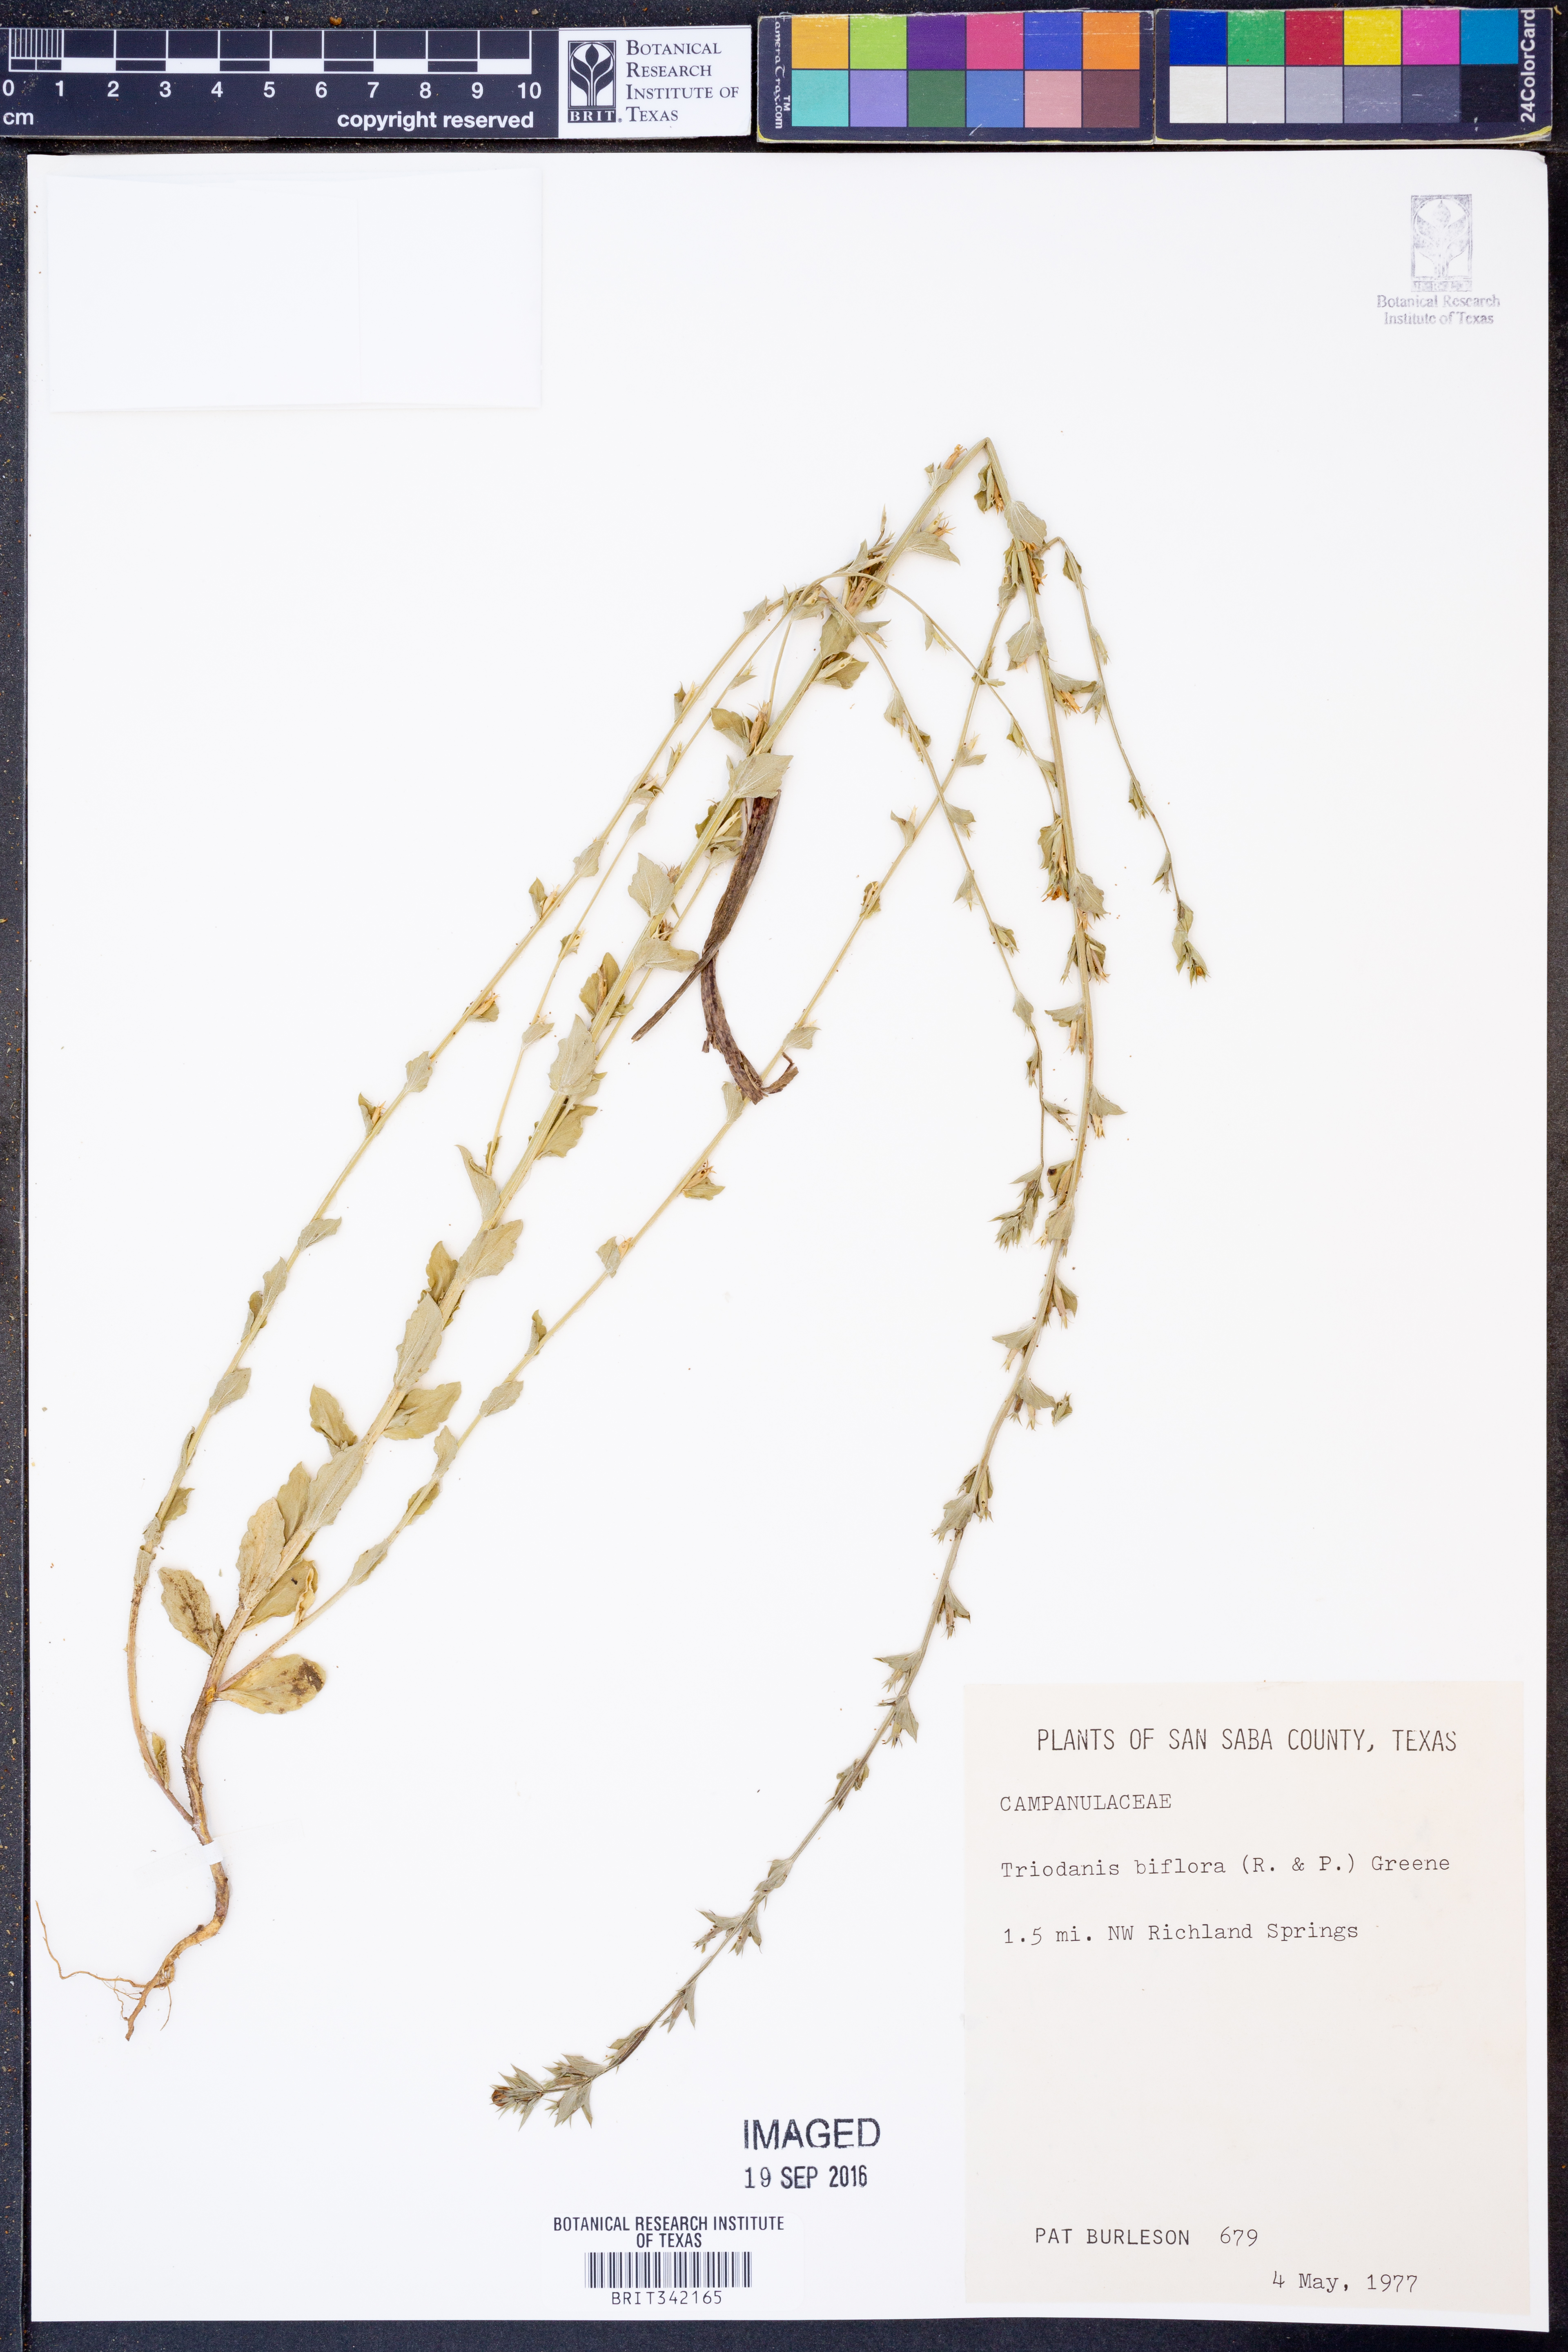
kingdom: Plantae
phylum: Tracheophyta
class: Magnoliopsida
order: Asterales
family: Campanulaceae
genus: Triodanis
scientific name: Triodanis perfoliata
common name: Clasping venus' looking-glass
